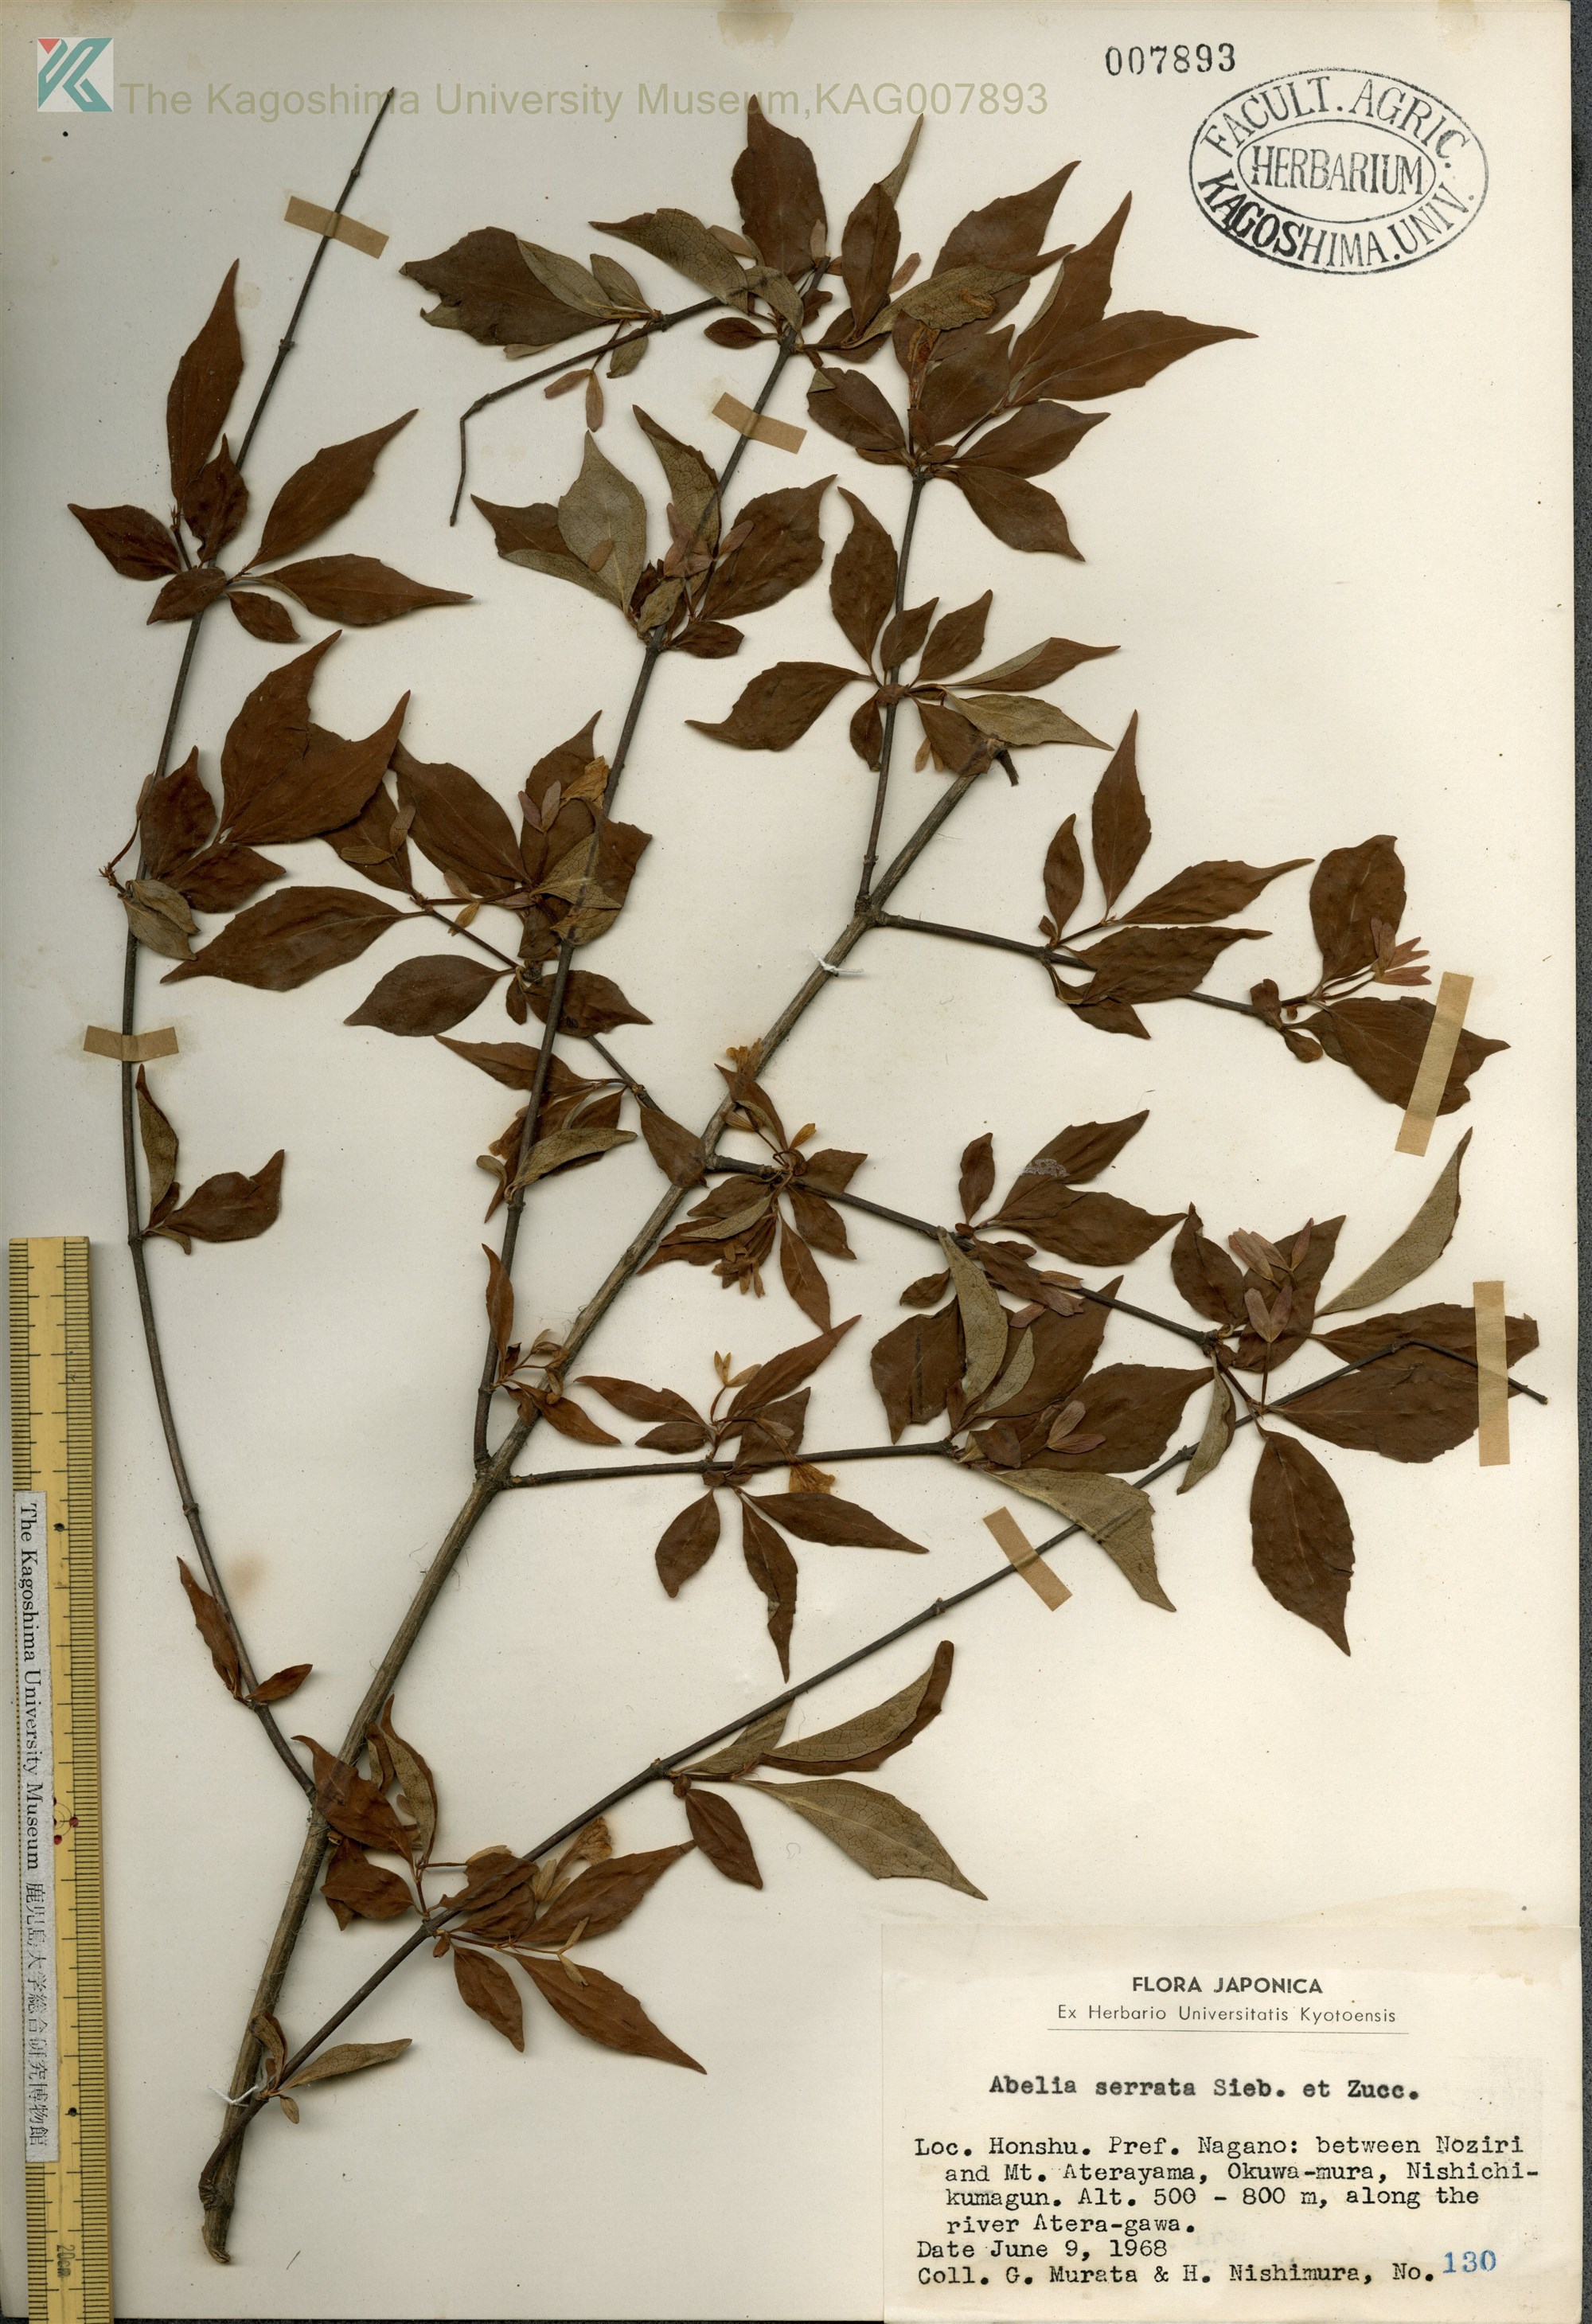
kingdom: Plantae
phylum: Tracheophyta
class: Magnoliopsida
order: Dipsacales
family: Caprifoliaceae
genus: Diabelia
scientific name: Diabelia serrata
